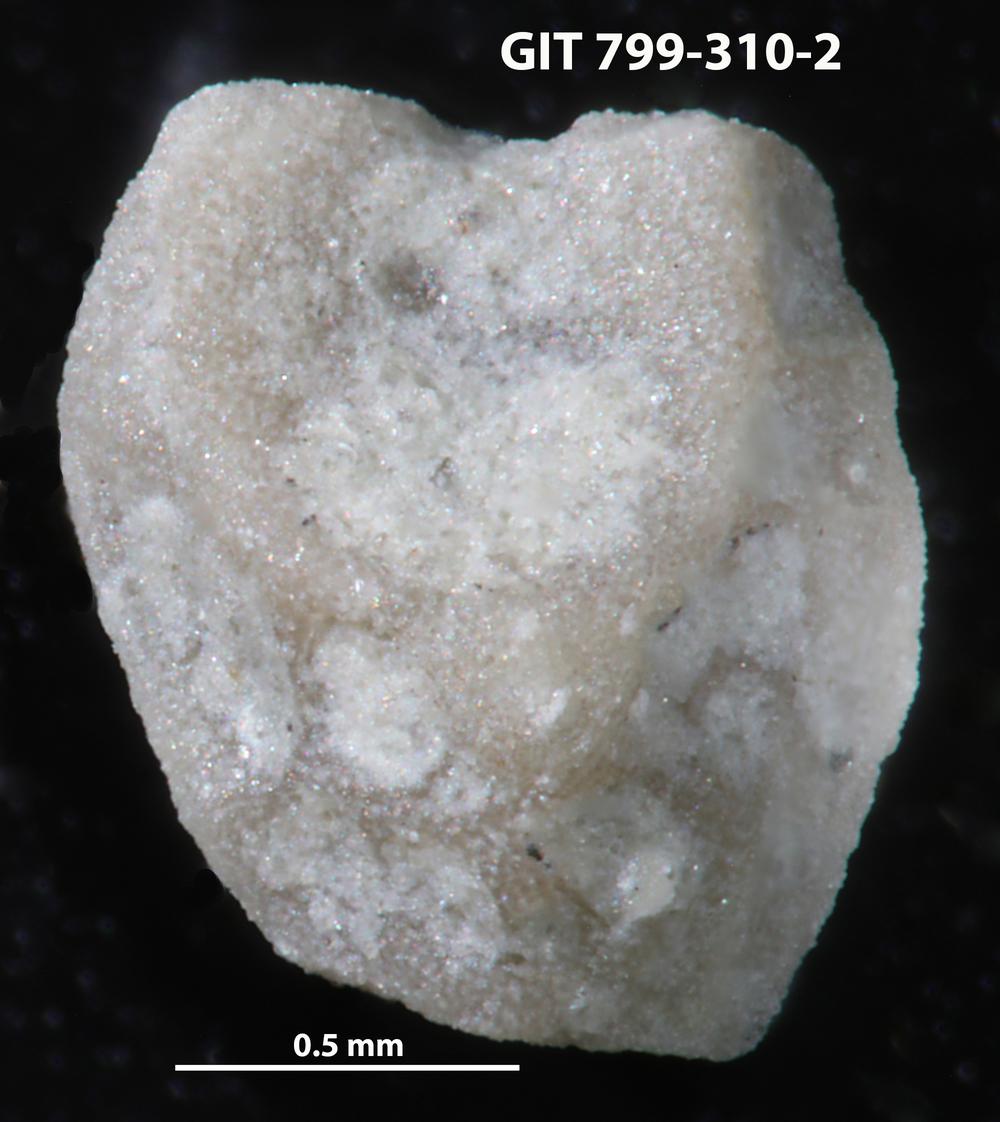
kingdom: Animalia
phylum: Echinodermata
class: Echinoidea
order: Bothriocidaroida
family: Bothriocidaridae
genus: Neobothriocidaris
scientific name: Neobothriocidaris
